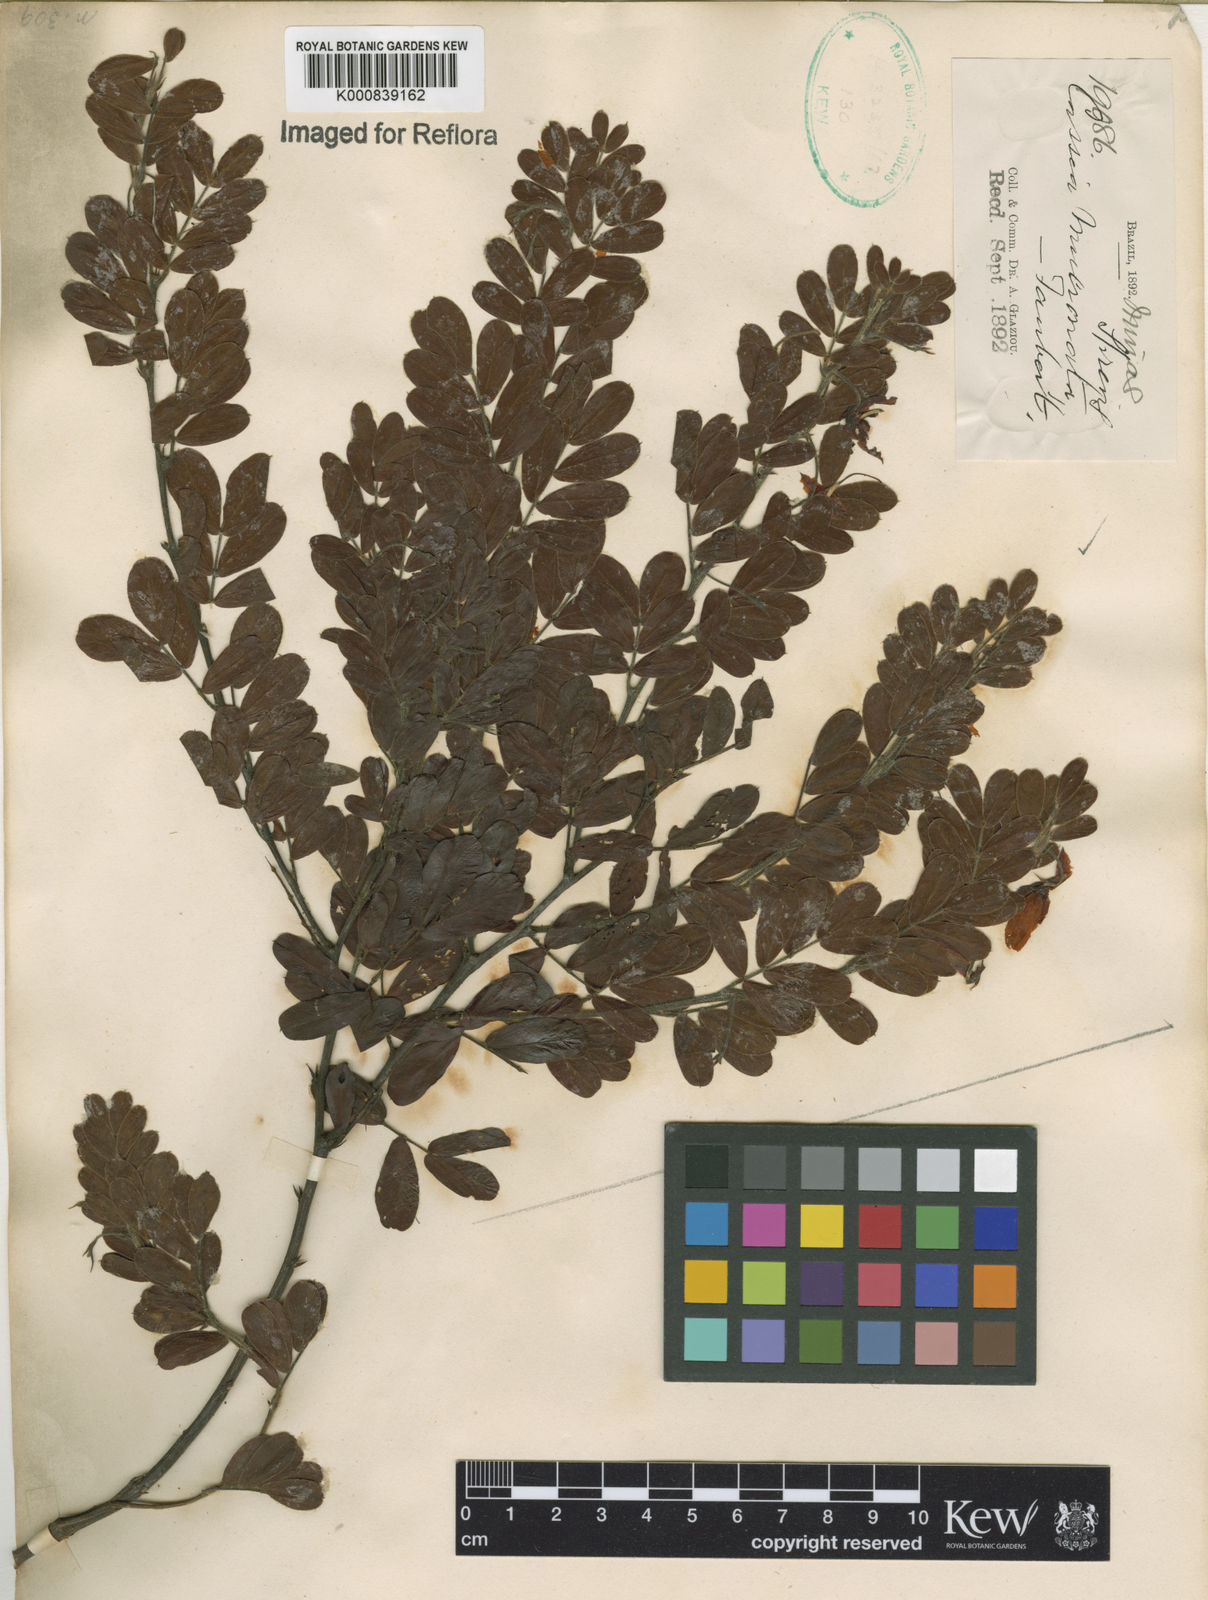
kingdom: Plantae
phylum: Tracheophyta
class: Magnoliopsida
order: Fabales
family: Fabaceae
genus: Chamaecrista
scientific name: Chamaecrista mucronata
